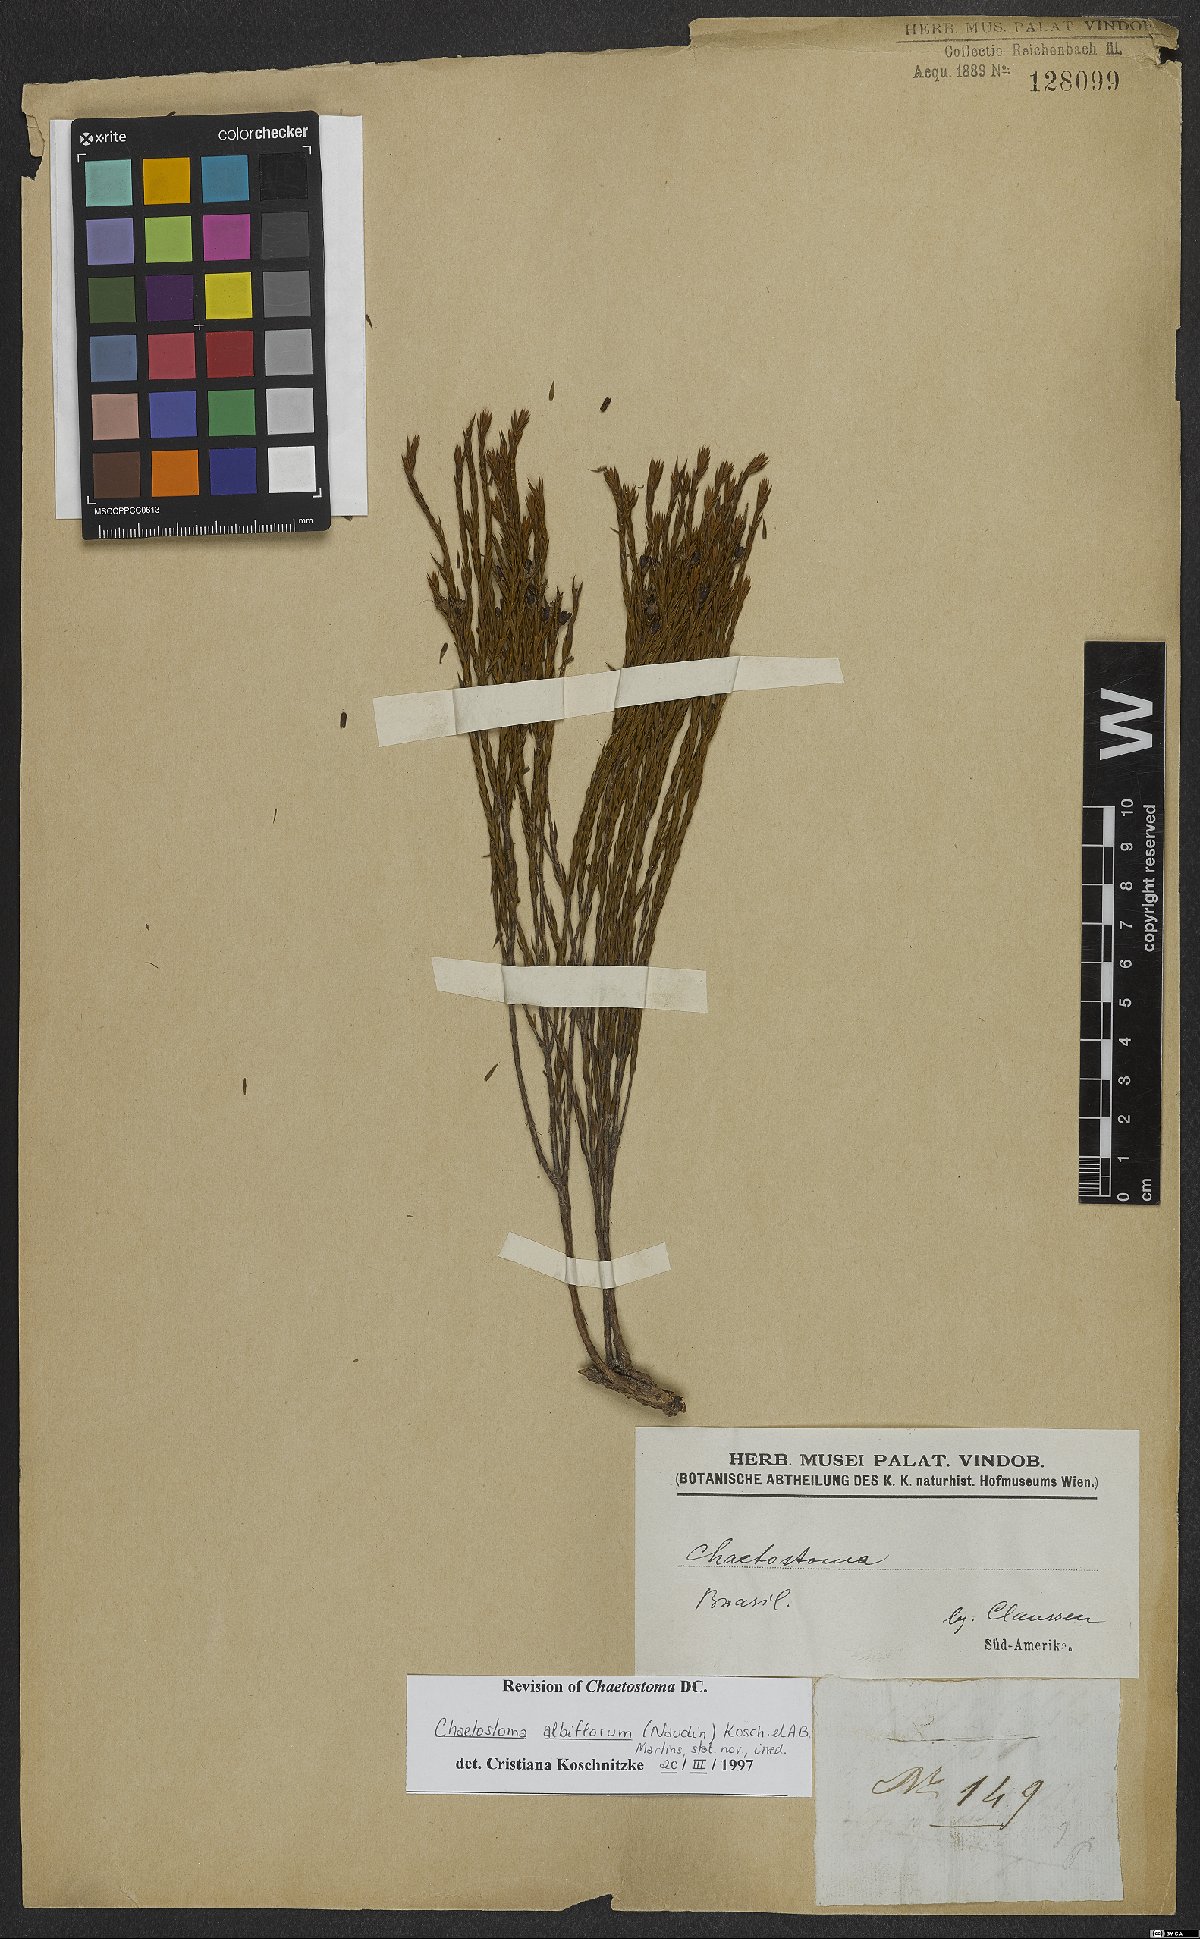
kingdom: Plantae
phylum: Tracheophyta
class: Magnoliopsida
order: Myrtales
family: Melastomataceae
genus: Microlicia
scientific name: Microlicia albiflora
